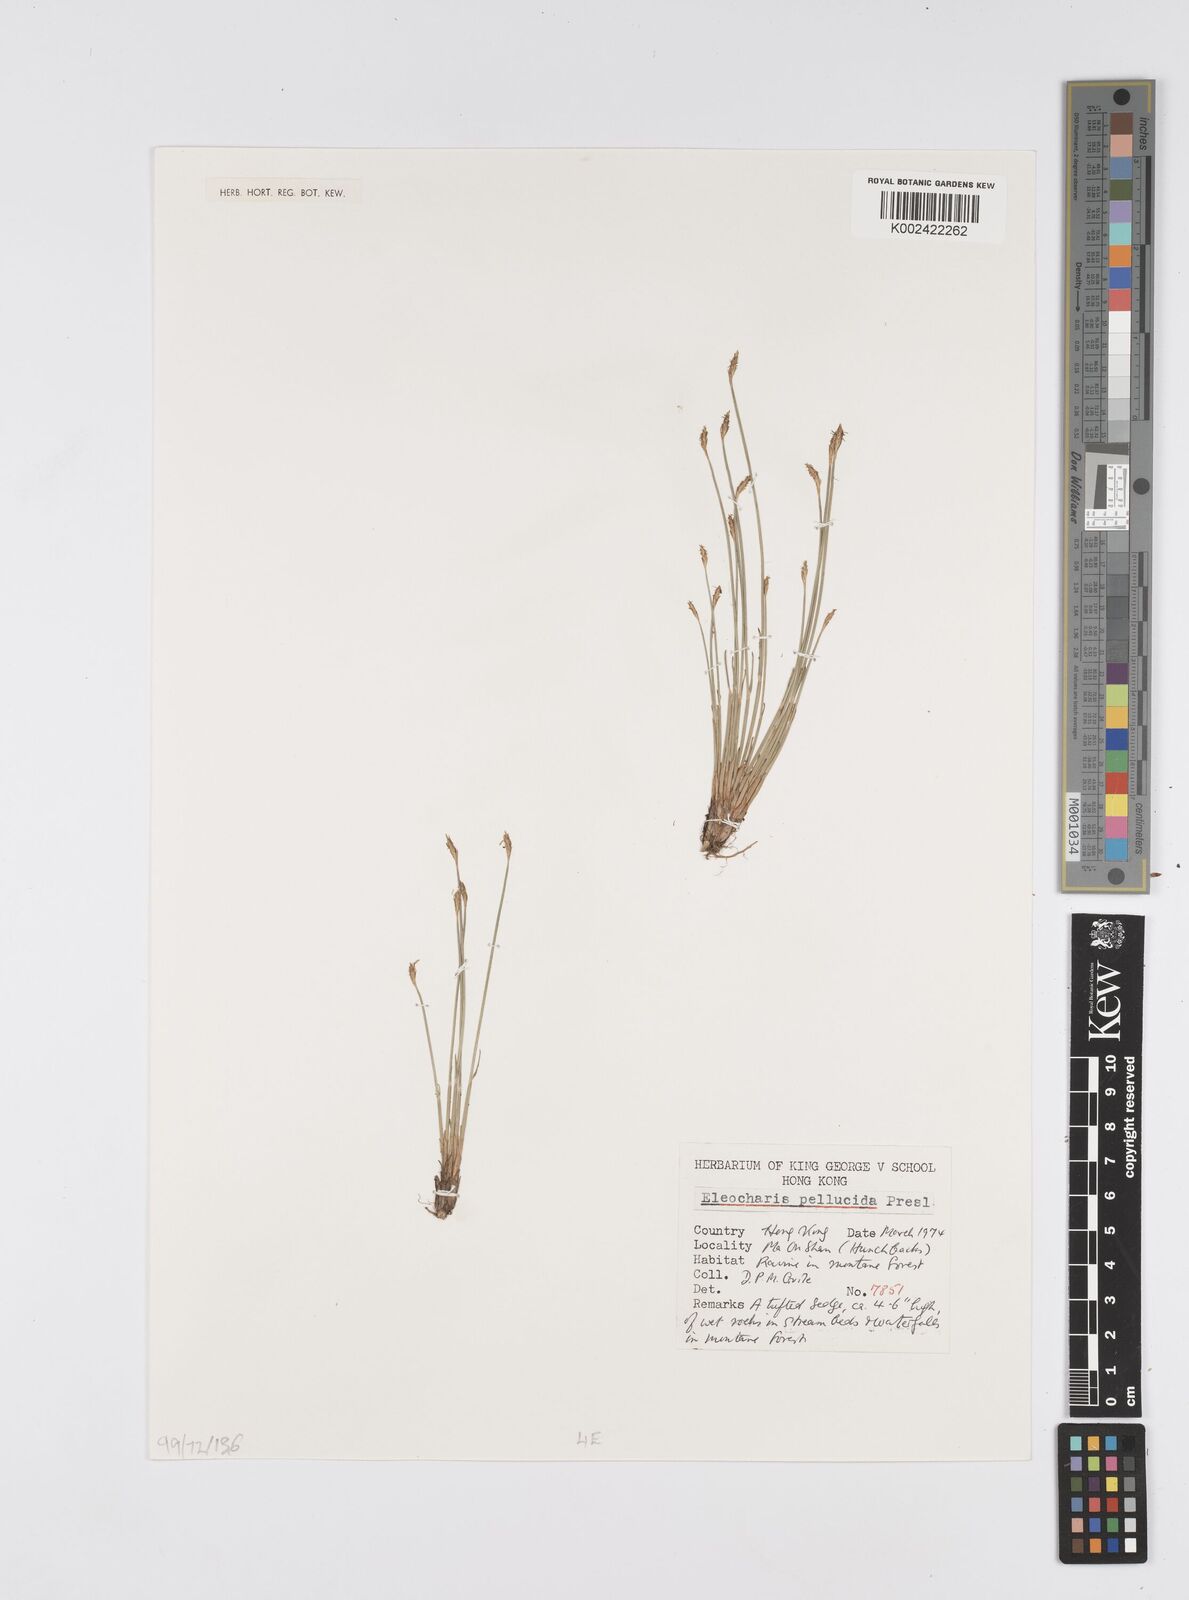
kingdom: Plantae
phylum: Tracheophyta
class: Liliopsida
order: Poales
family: Cyperaceae
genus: Eleocharis
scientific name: Eleocharis pellucida
